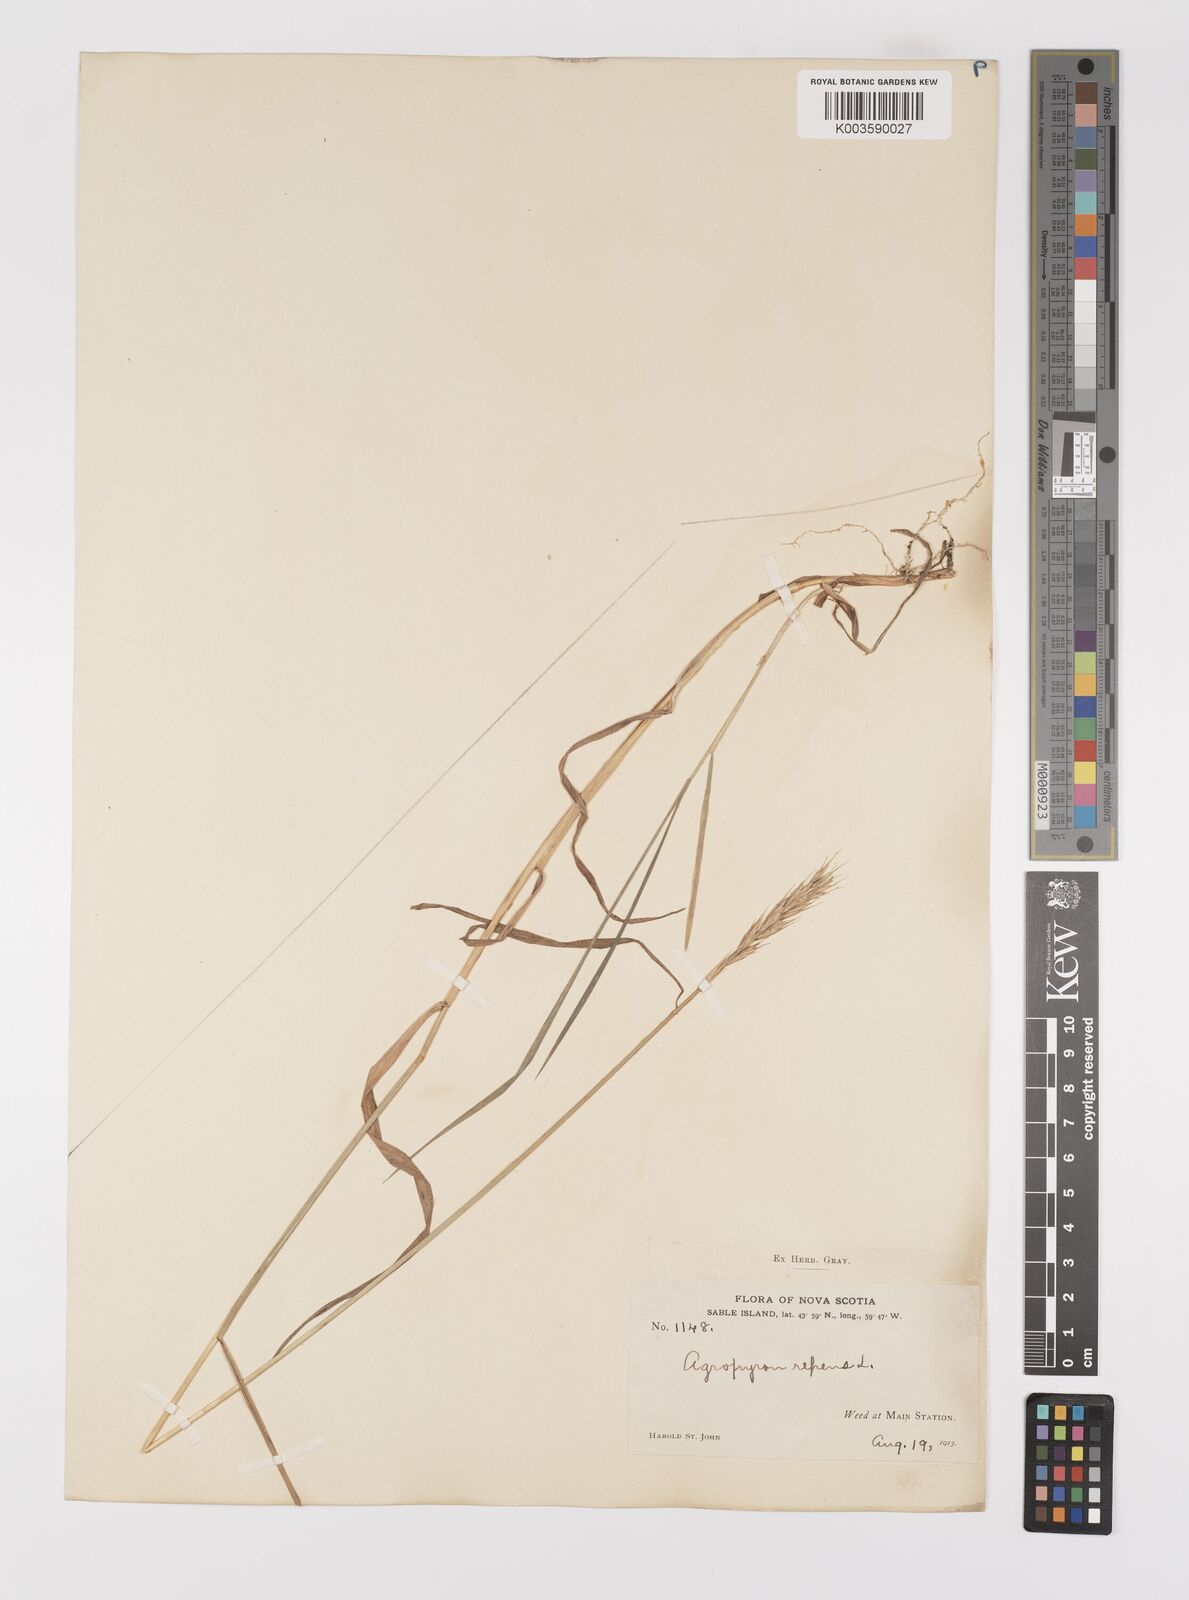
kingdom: Plantae
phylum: Tracheophyta
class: Liliopsida
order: Poales
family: Poaceae
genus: Elymus
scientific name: Elymus repens
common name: Quackgrass
